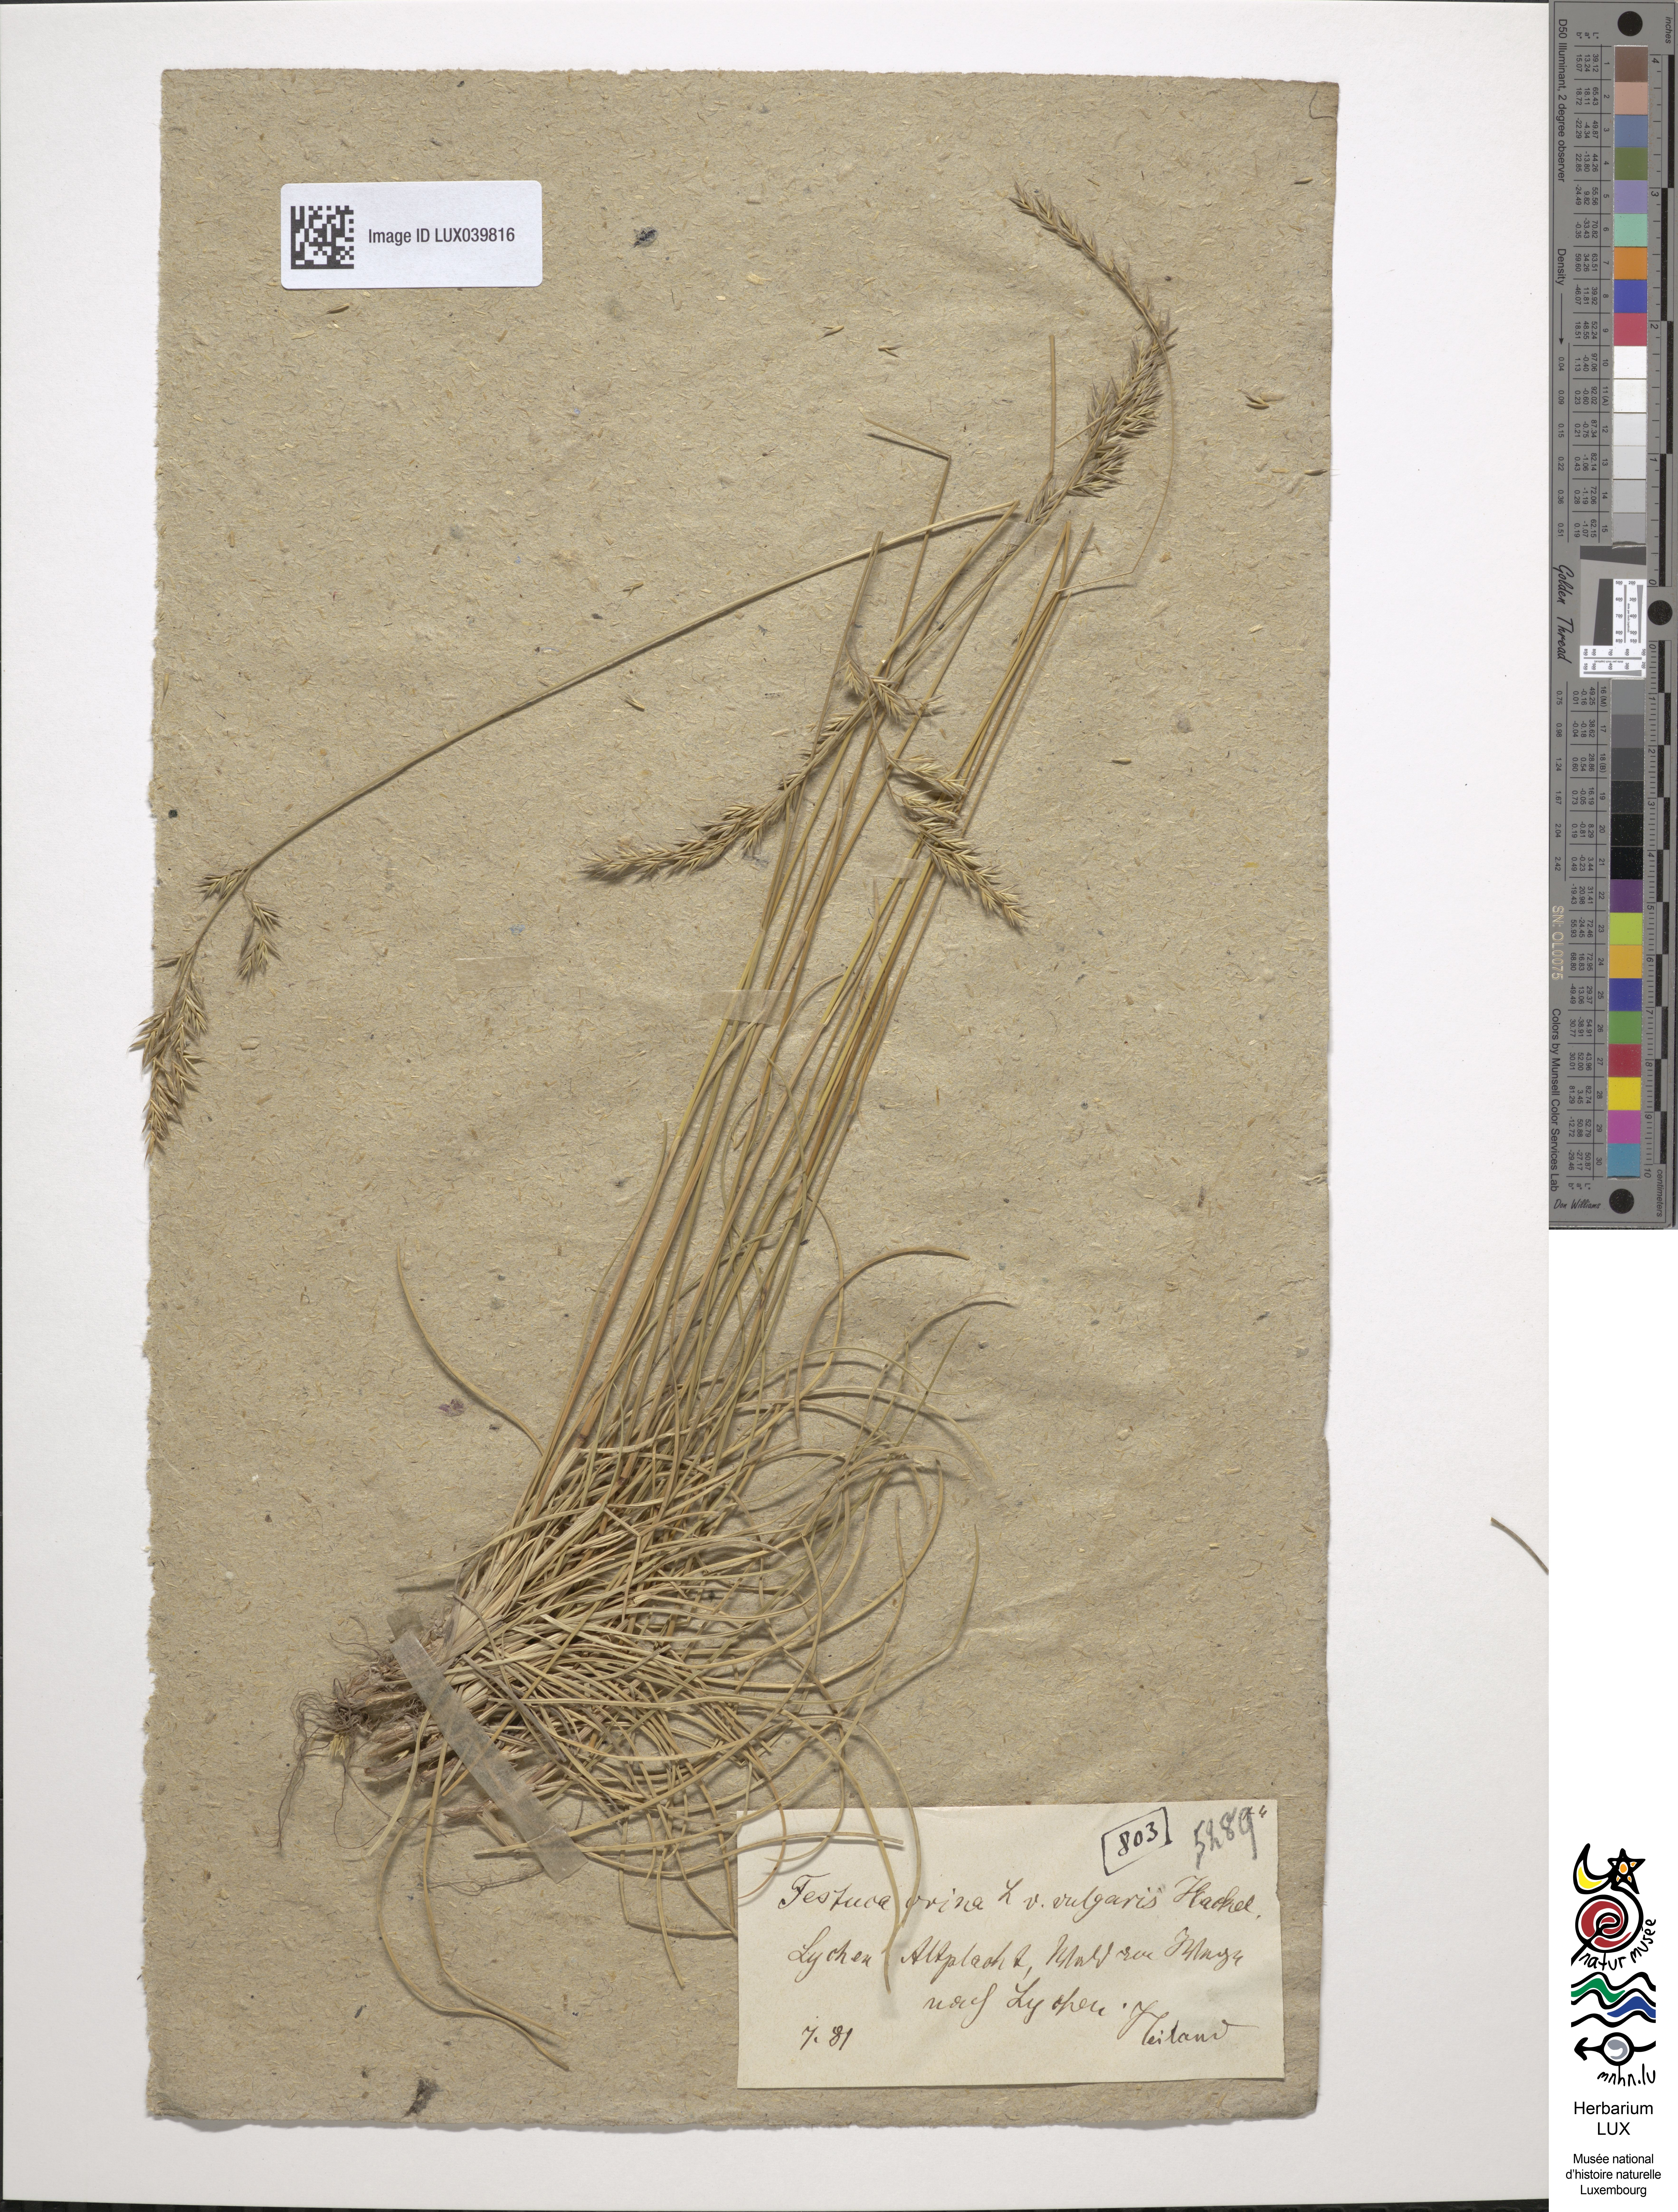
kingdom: Plantae
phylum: Tracheophyta
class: Liliopsida
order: Poales
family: Poaceae
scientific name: Poaceae
